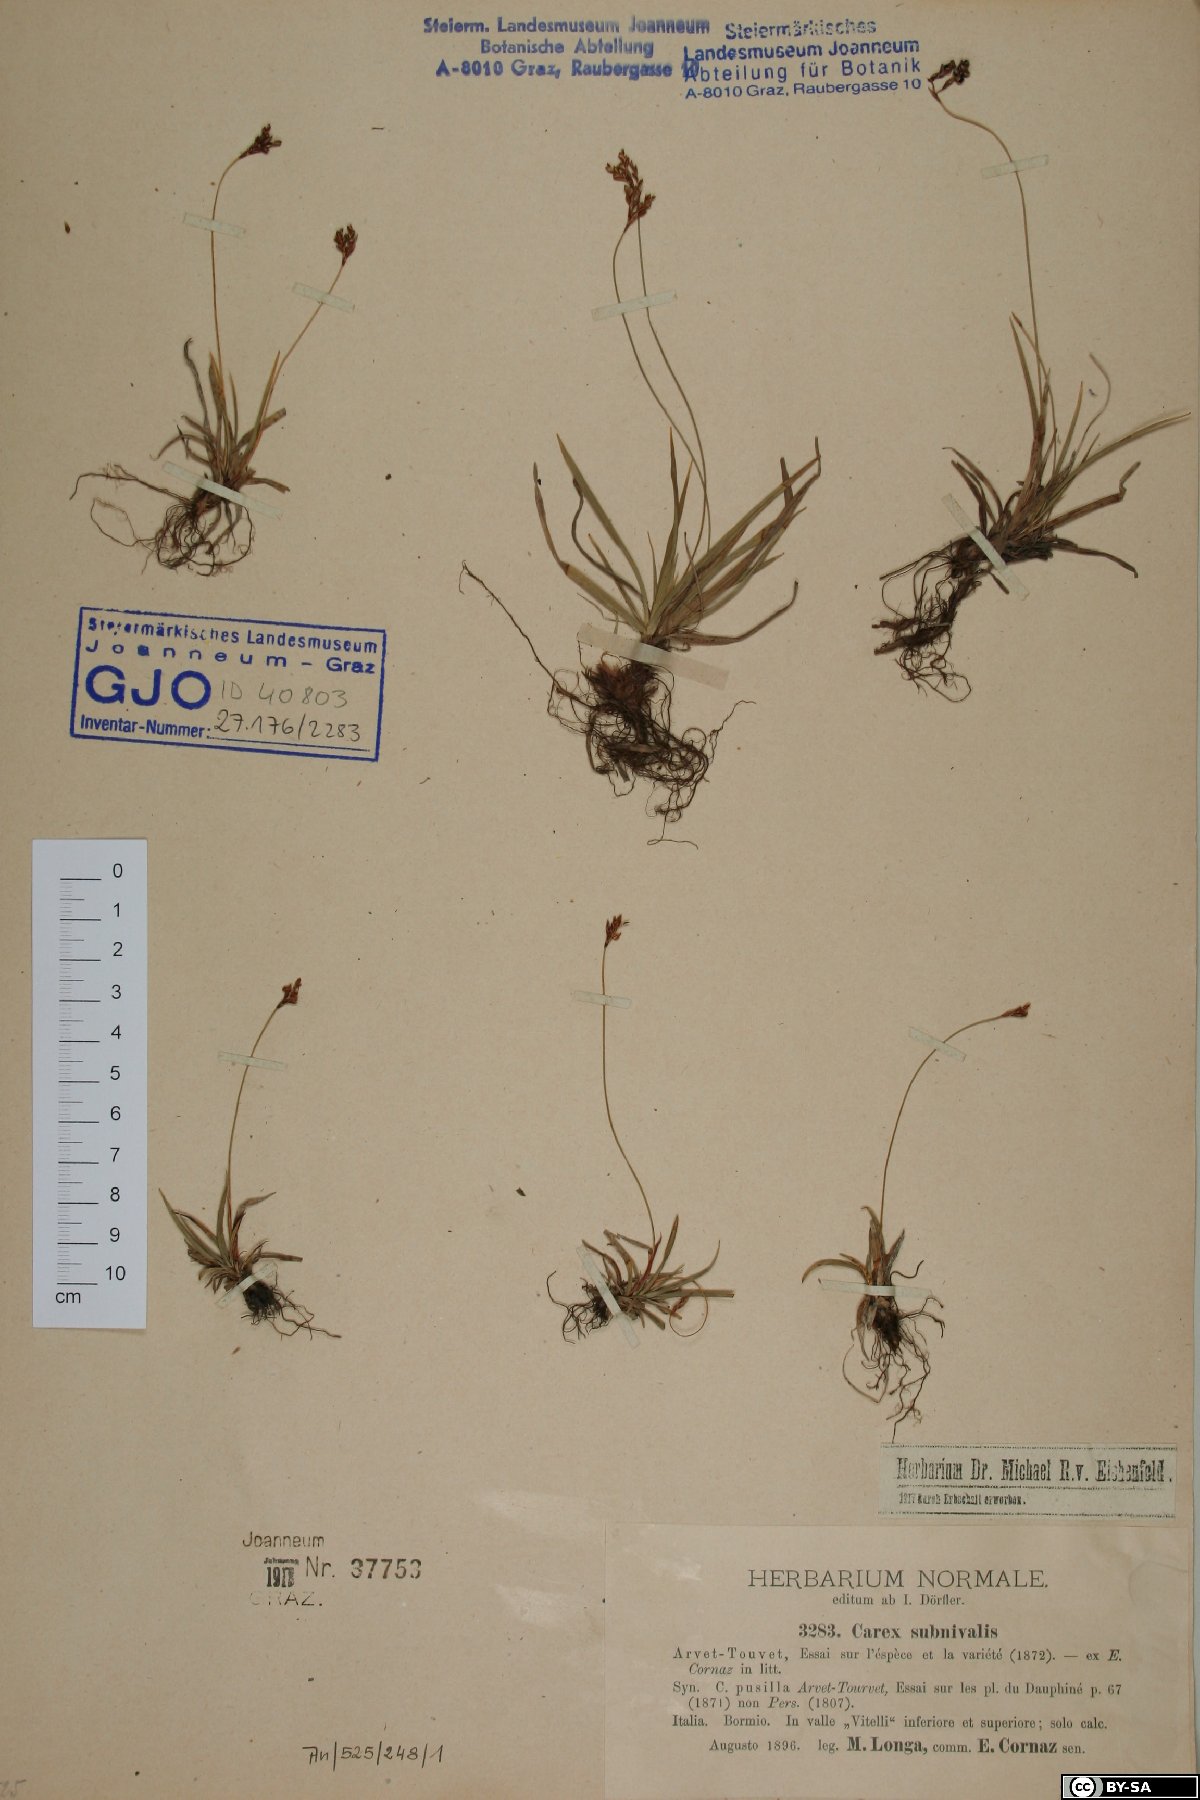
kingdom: Plantae
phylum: Tracheophyta
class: Liliopsida
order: Poales
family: Cyperaceae
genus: Carex
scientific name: Carex ornithopoda
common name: Bird's-foot sedge
